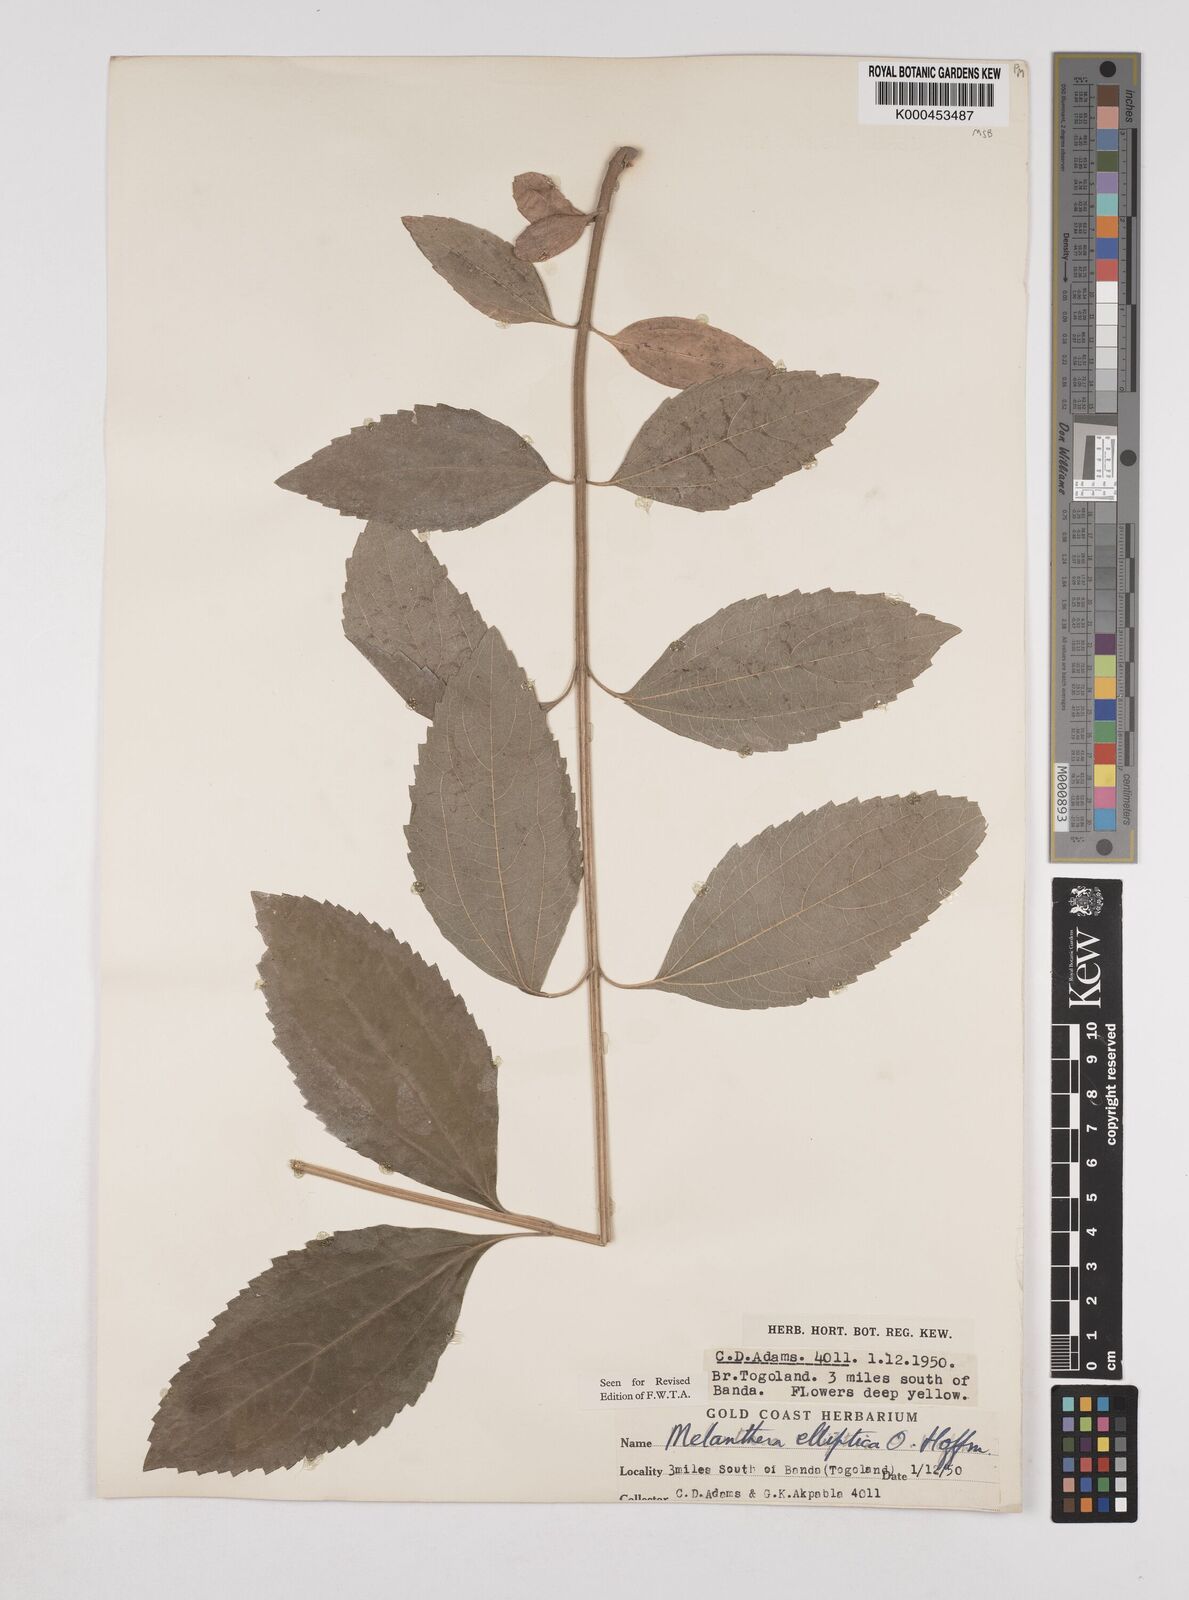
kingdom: Plantae
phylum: Tracheophyta
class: Magnoliopsida
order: Asterales
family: Asteraceae
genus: Lipotriche
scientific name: Lipotriche elliptica
